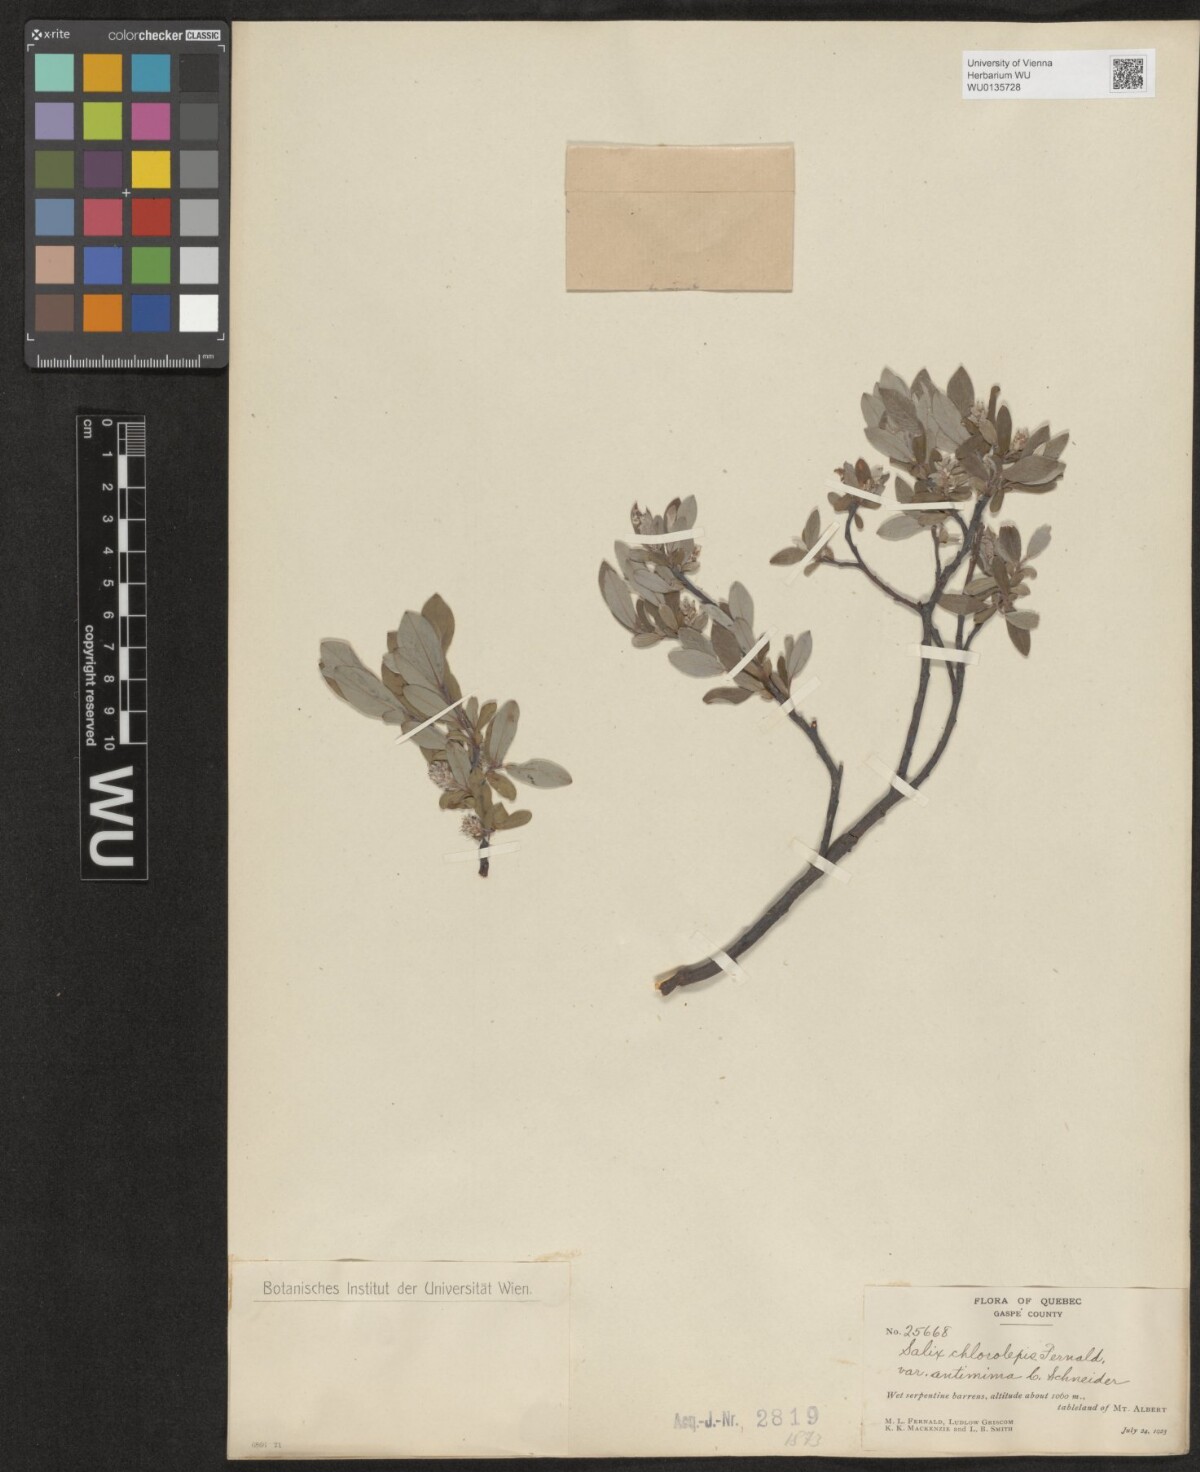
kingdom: Plantae
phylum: Tracheophyta
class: Magnoliopsida
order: Malpighiales
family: Salicaceae
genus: Salix
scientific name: Salix chlorolepis
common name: Green-bract willow
